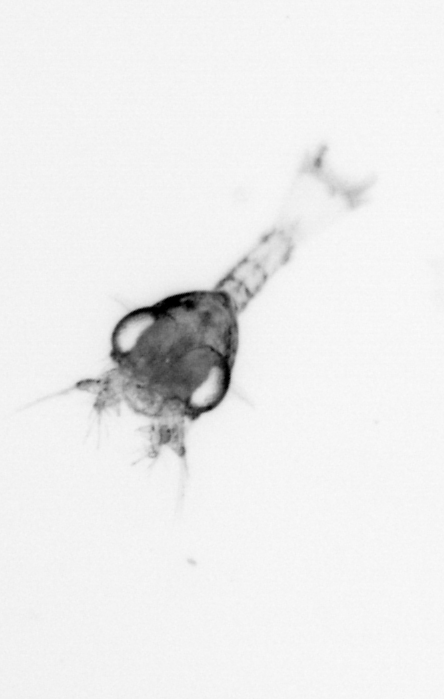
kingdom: Animalia
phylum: Arthropoda
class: Malacostraca
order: Decapoda
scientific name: Decapoda
